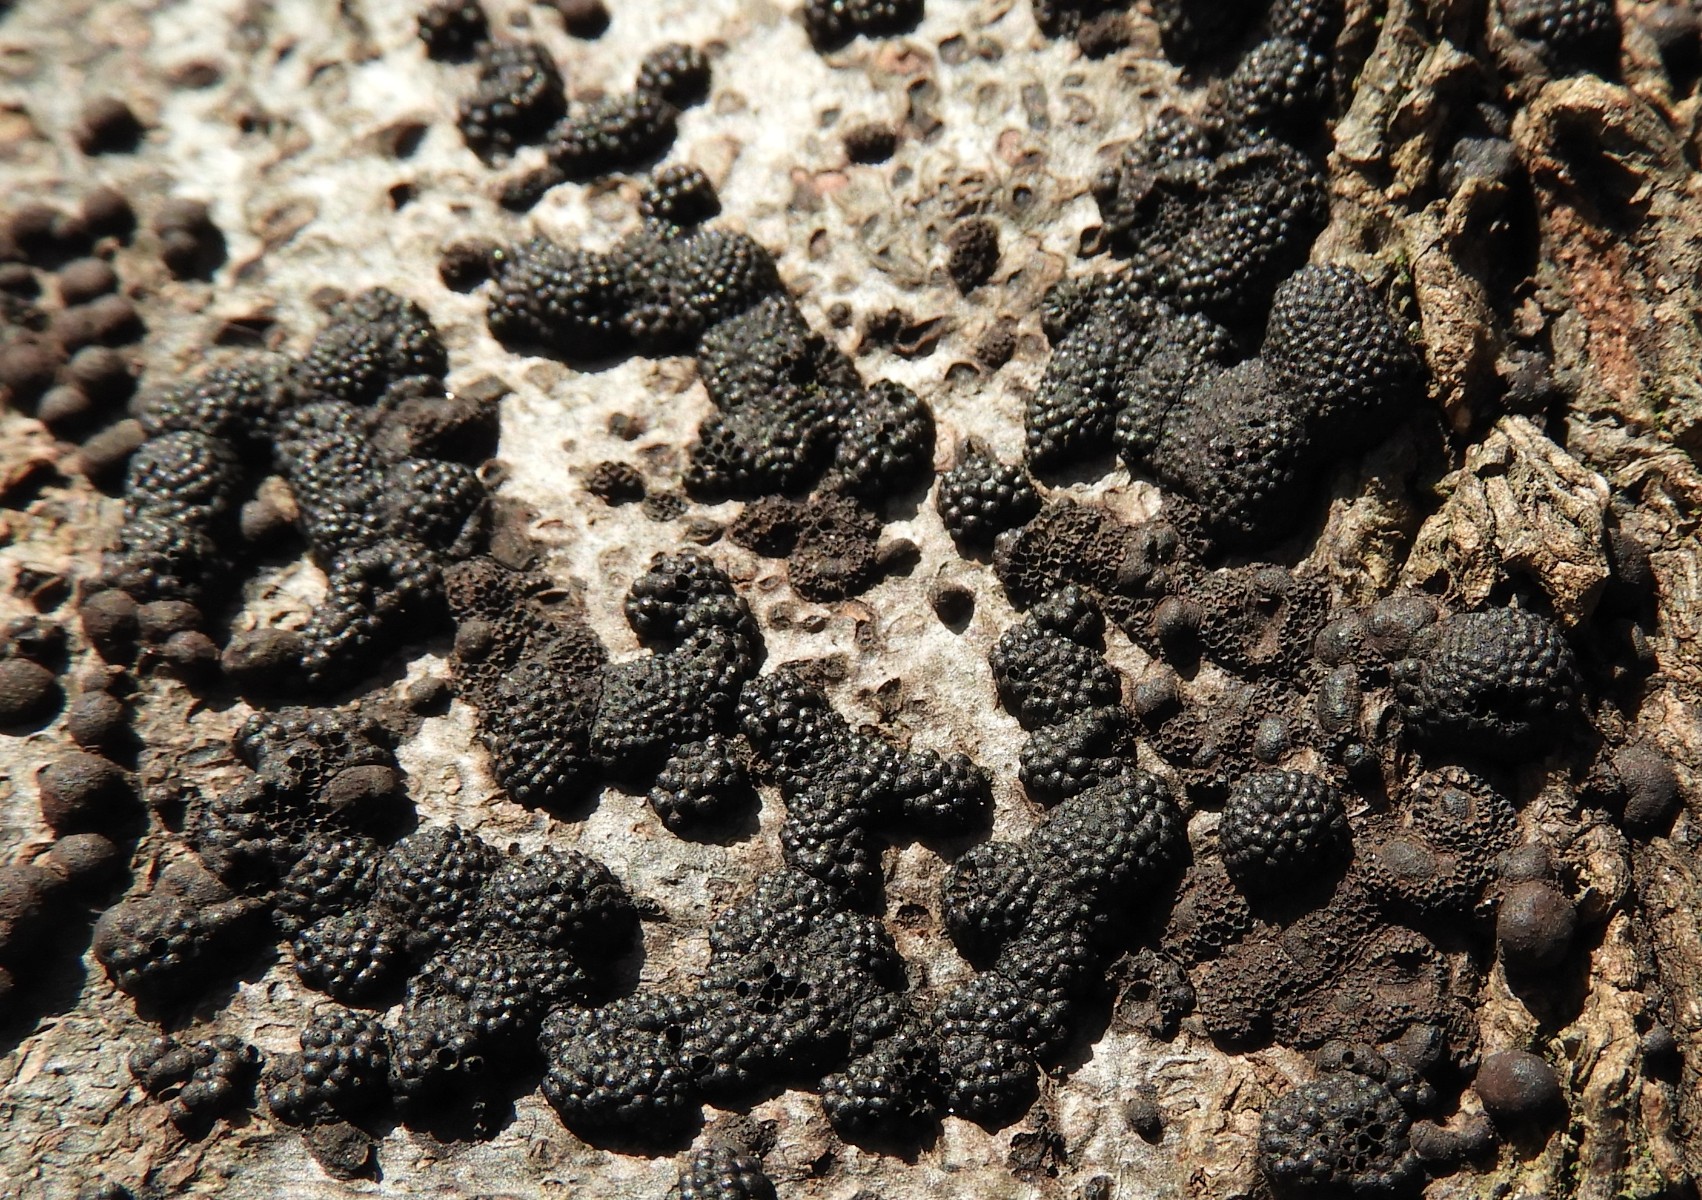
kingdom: Fungi
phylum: Ascomycota
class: Sordariomycetes
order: Xylariales
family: Hypoxylaceae
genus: Jackrogersella
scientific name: Jackrogersella
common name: kulbær
